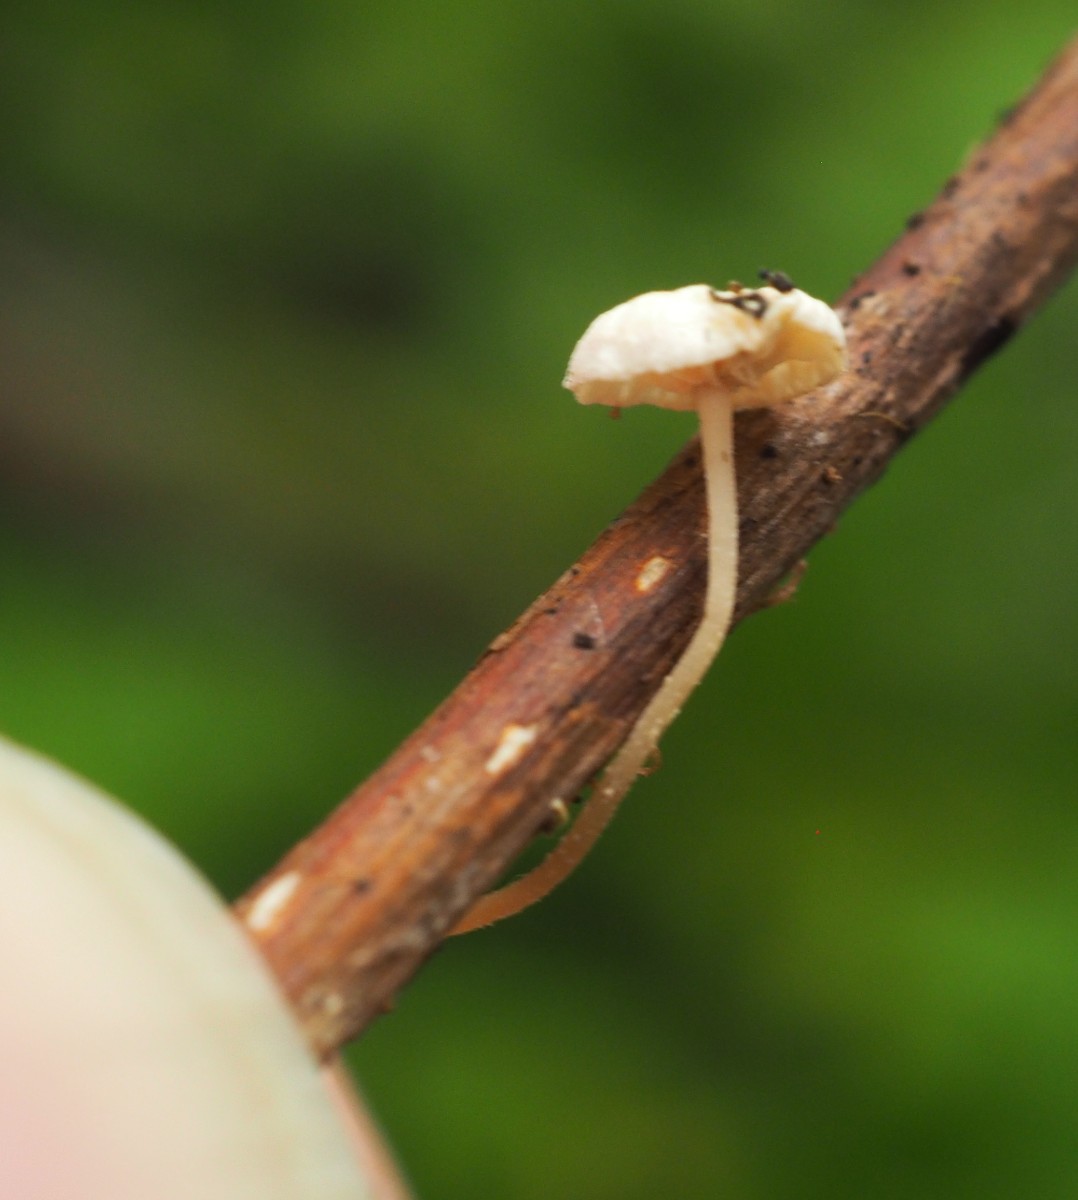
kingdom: Fungi
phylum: Basidiomycota
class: Agaricomycetes
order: Agaricales
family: Omphalotaceae
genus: Collybiopsis
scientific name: Collybiopsis vaillantii
